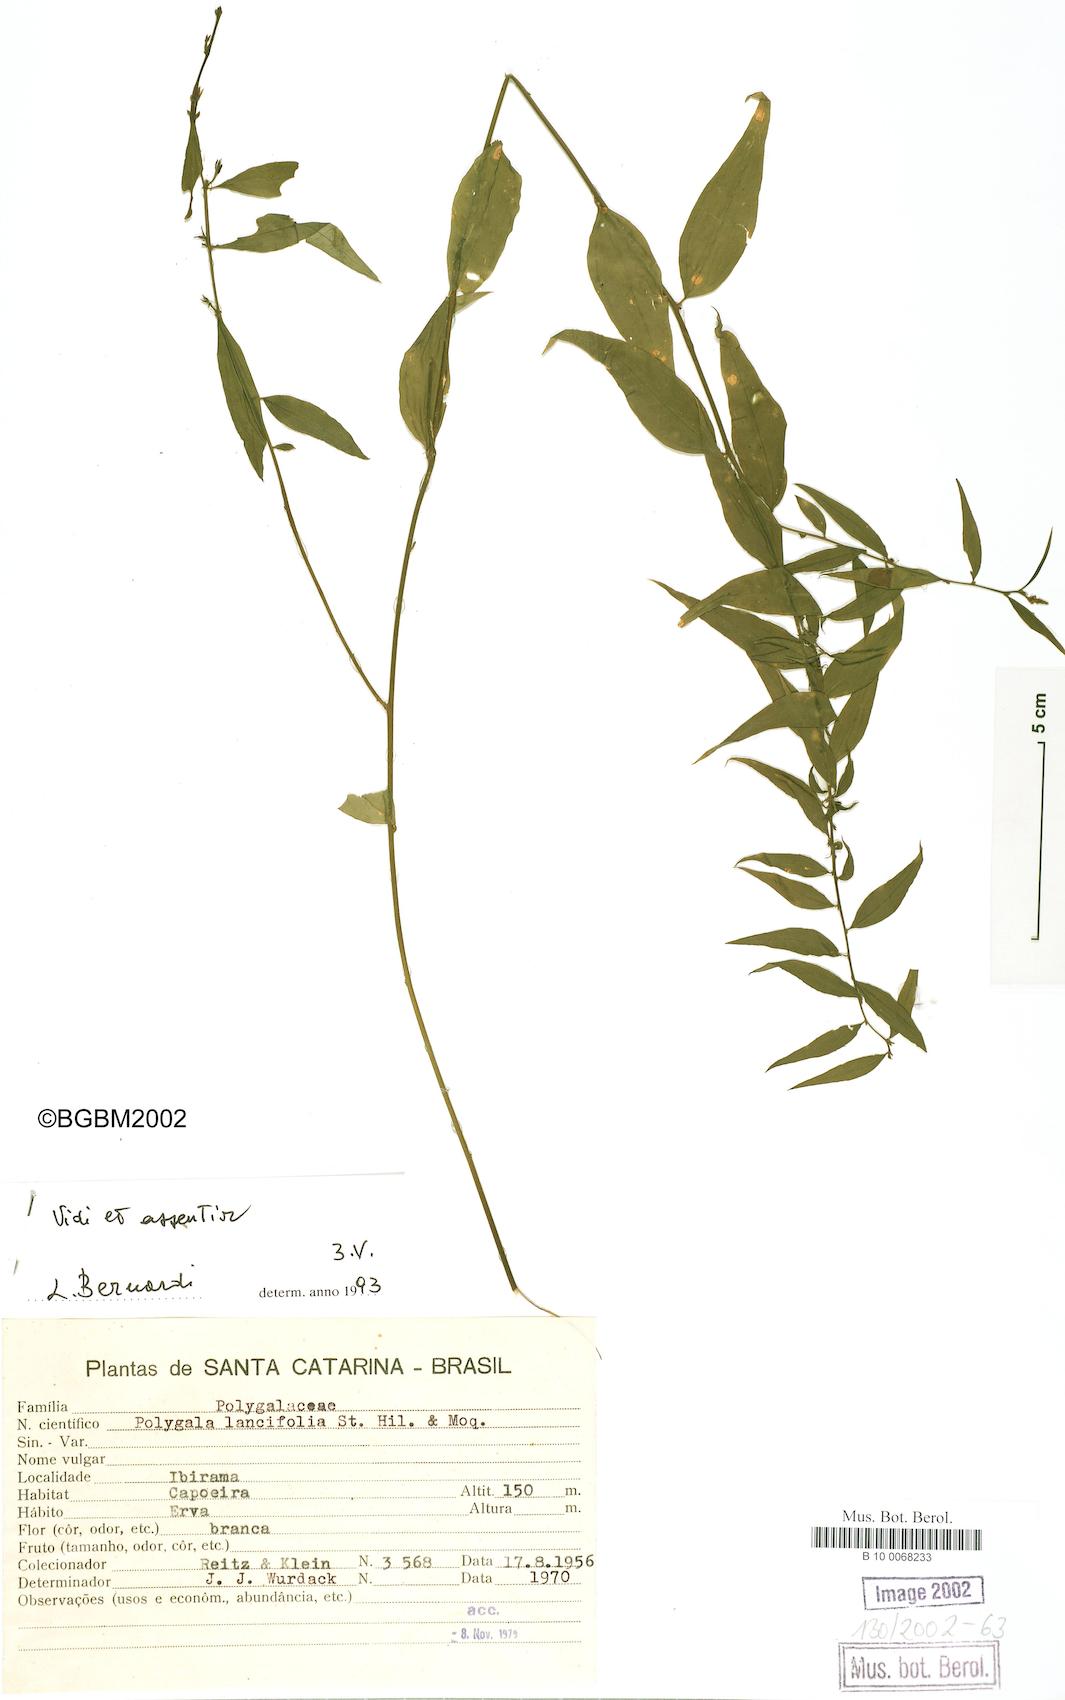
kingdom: Plantae
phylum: Tracheophyta
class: Magnoliopsida
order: Fabales
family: Polygalaceae
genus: Polygala
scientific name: Polygala lancifolia
